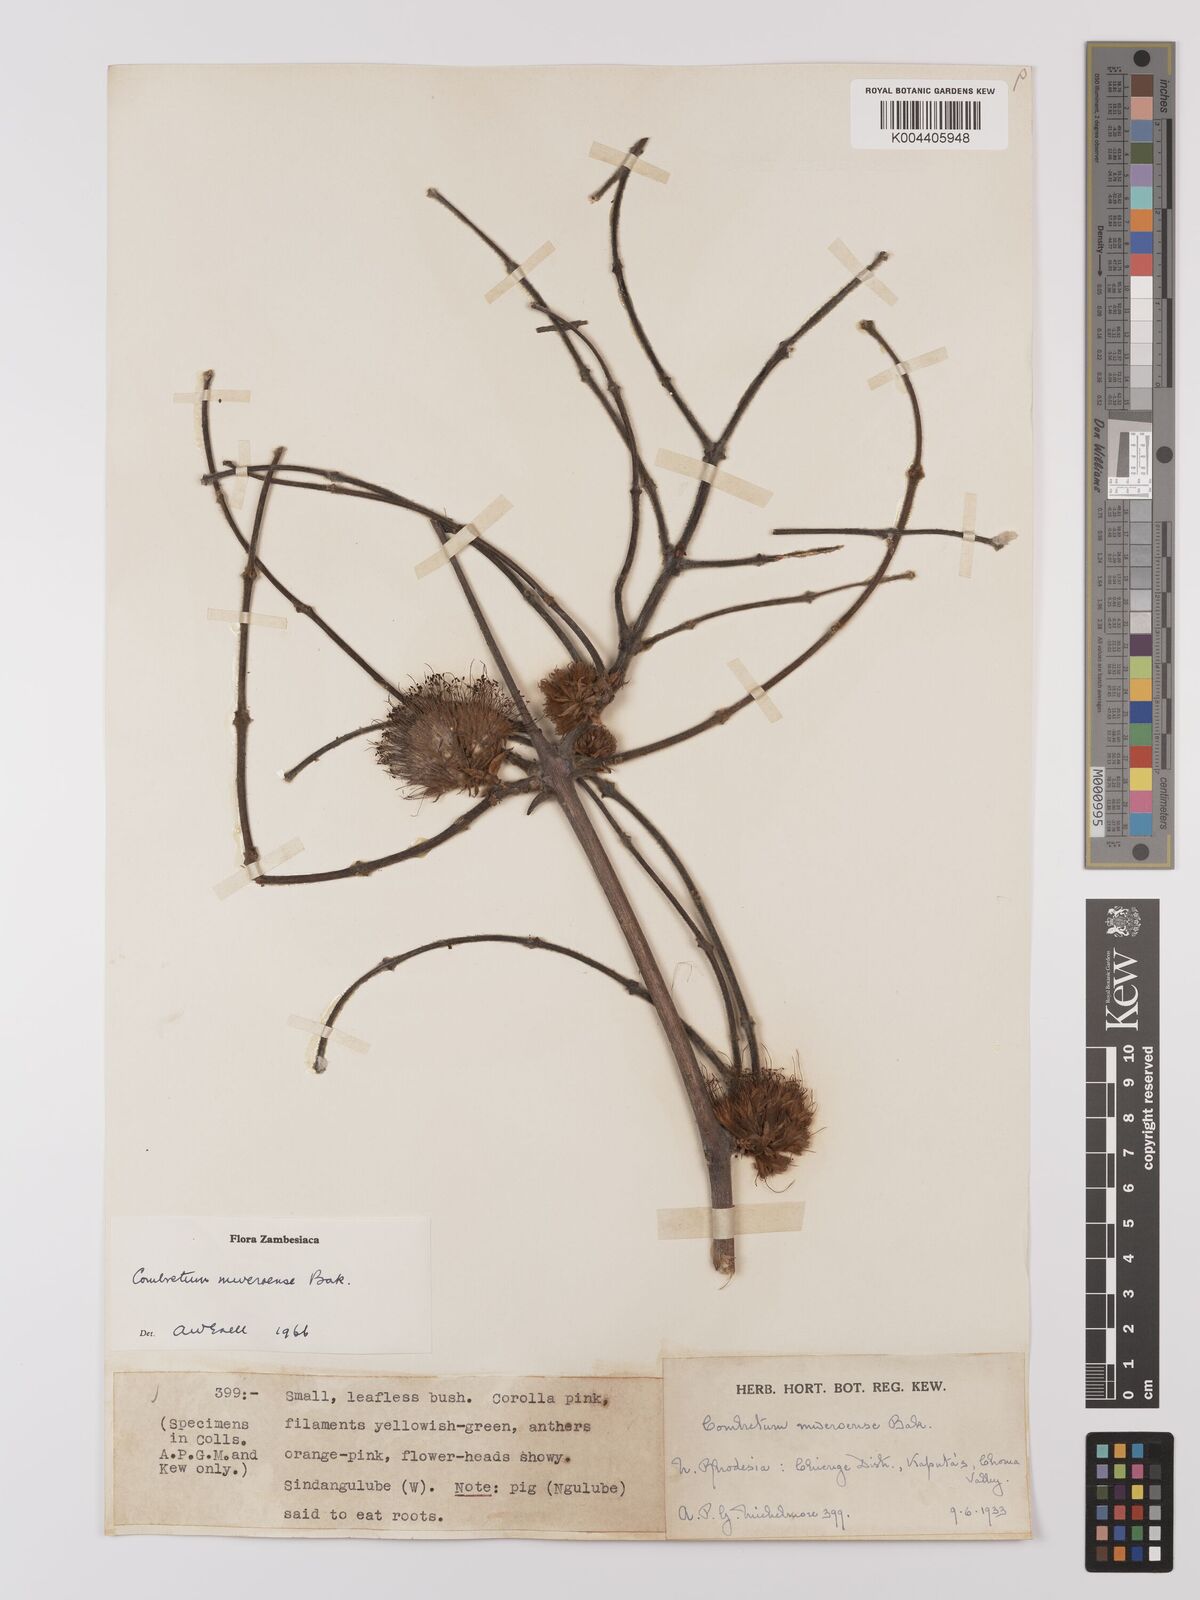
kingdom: Plantae
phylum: Tracheophyta
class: Magnoliopsida
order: Myrtales
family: Combretaceae
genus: Combretum
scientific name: Combretum mweroense
